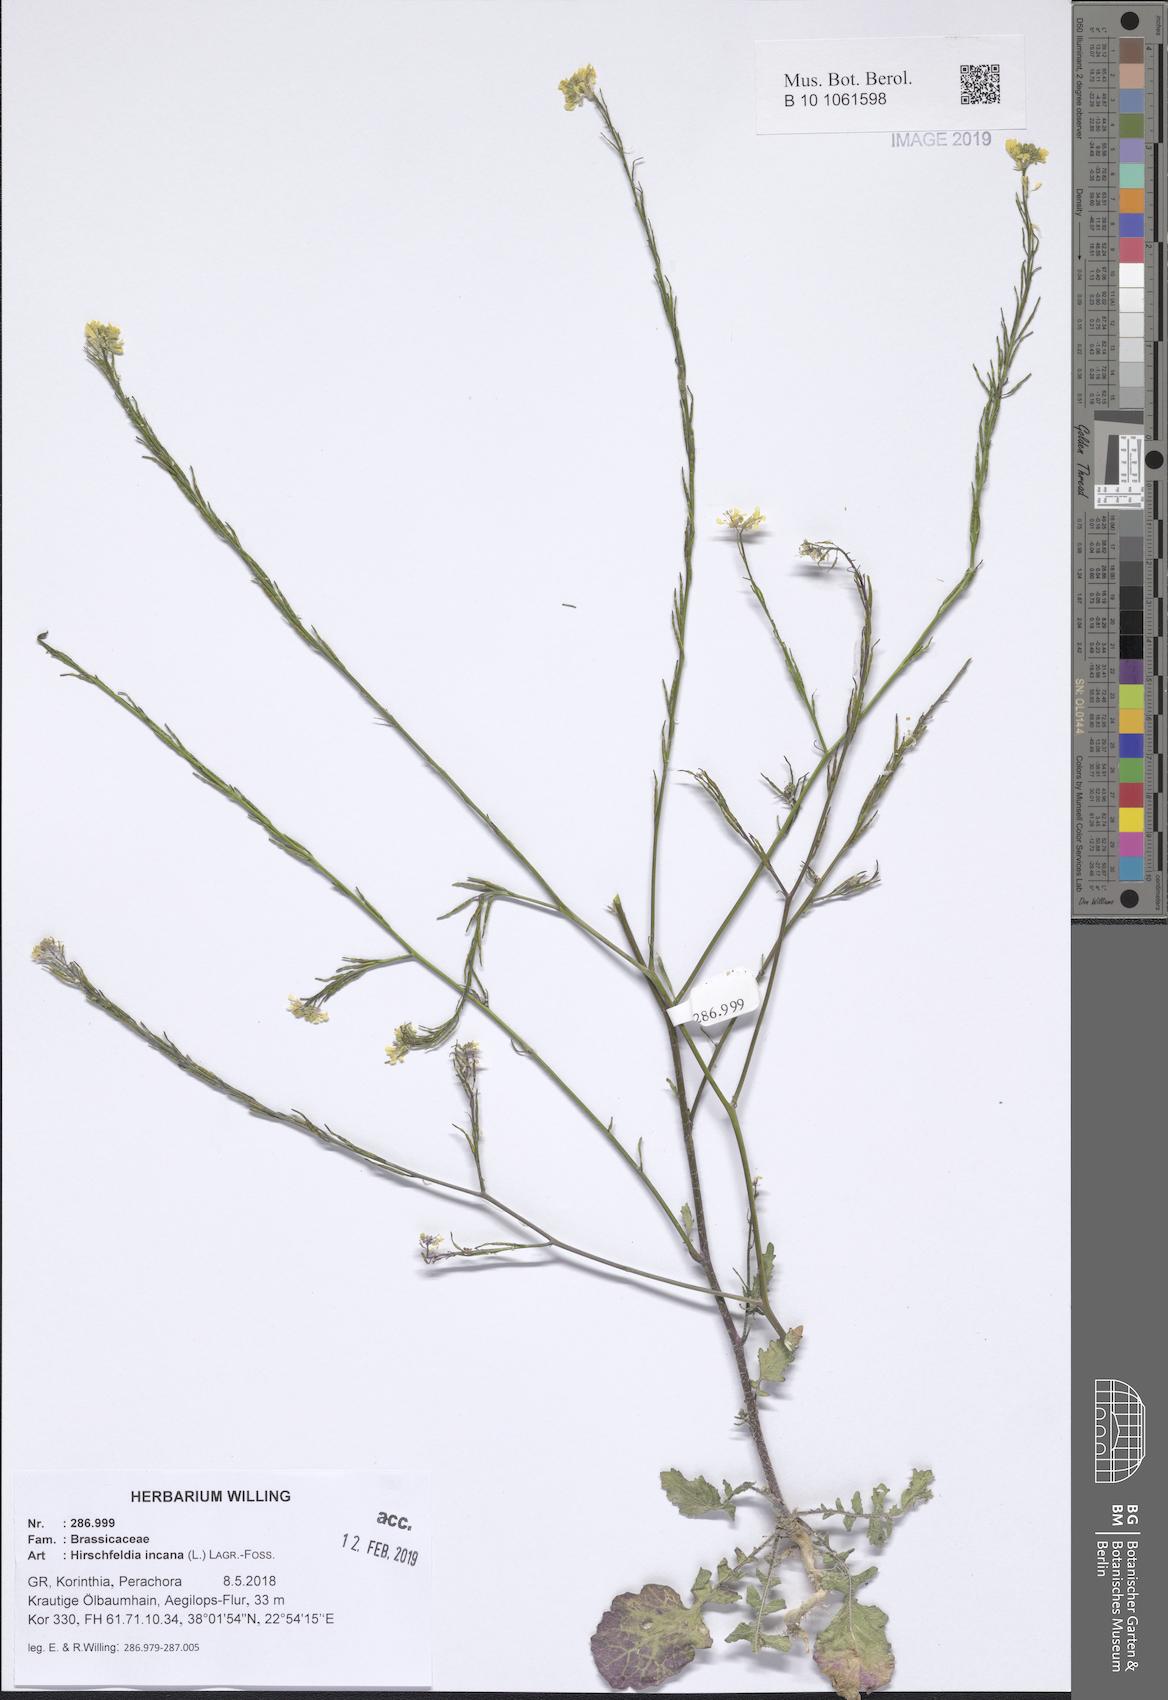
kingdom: Plantae
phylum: Tracheophyta
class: Magnoliopsida
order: Brassicales
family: Brassicaceae
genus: Hirschfeldia
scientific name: Hirschfeldia incana
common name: Hoary mustard
